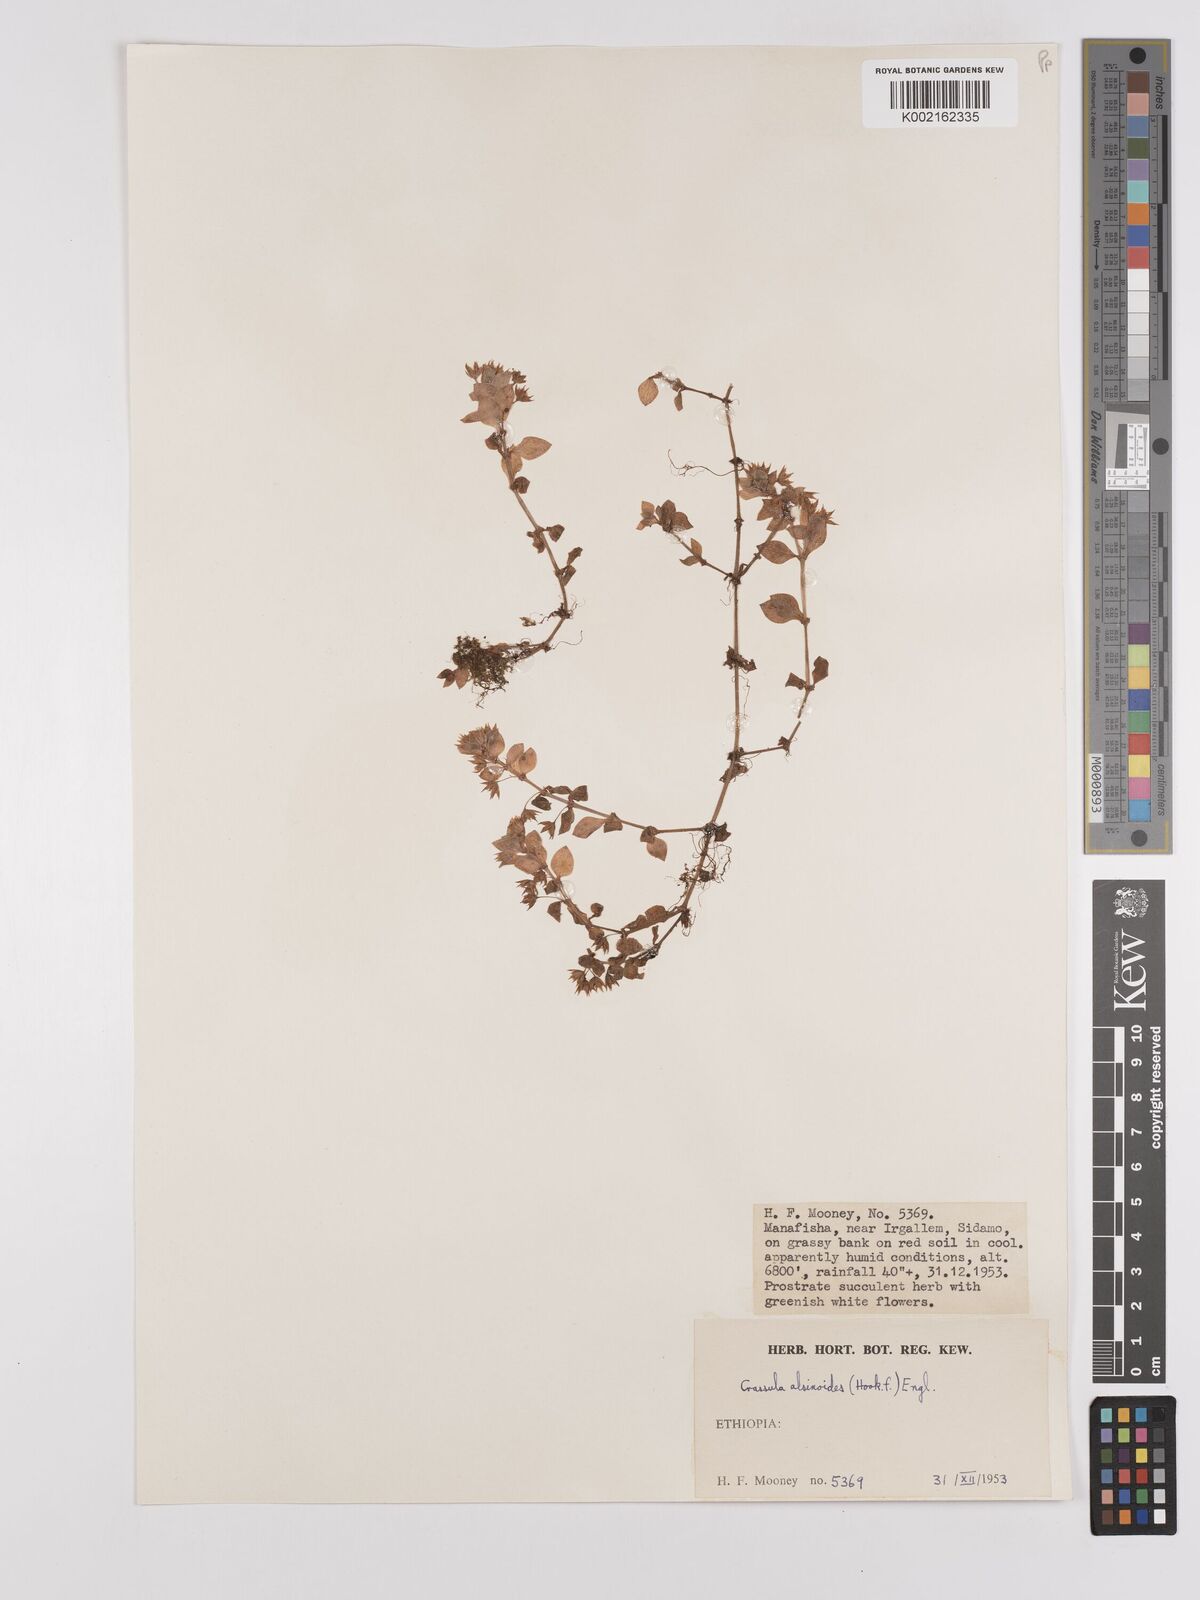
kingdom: Plantae
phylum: Tracheophyta
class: Magnoliopsida
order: Saxifragales
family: Crassulaceae
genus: Crassula
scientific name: Crassula alsinoides
